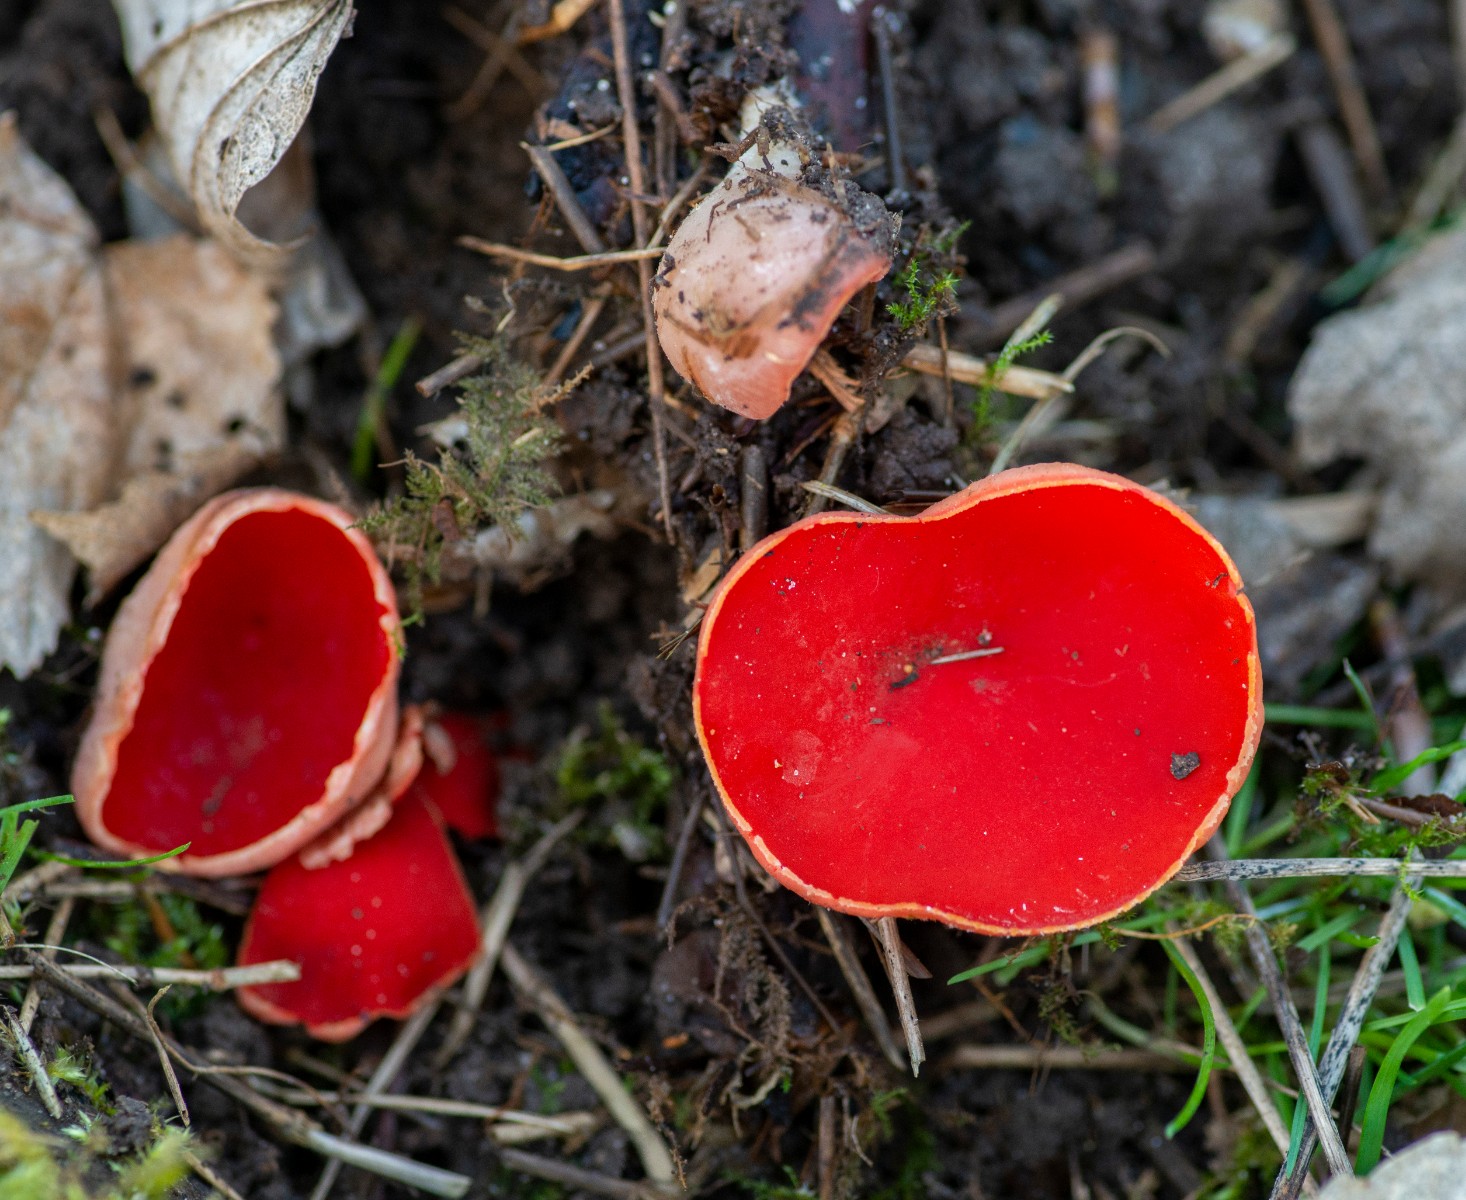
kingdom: Fungi
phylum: Ascomycota
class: Pezizomycetes
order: Pezizales
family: Sarcoscyphaceae
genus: Sarcoscypha
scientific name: Sarcoscypha austriaca
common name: krølhåret pragtbæger
